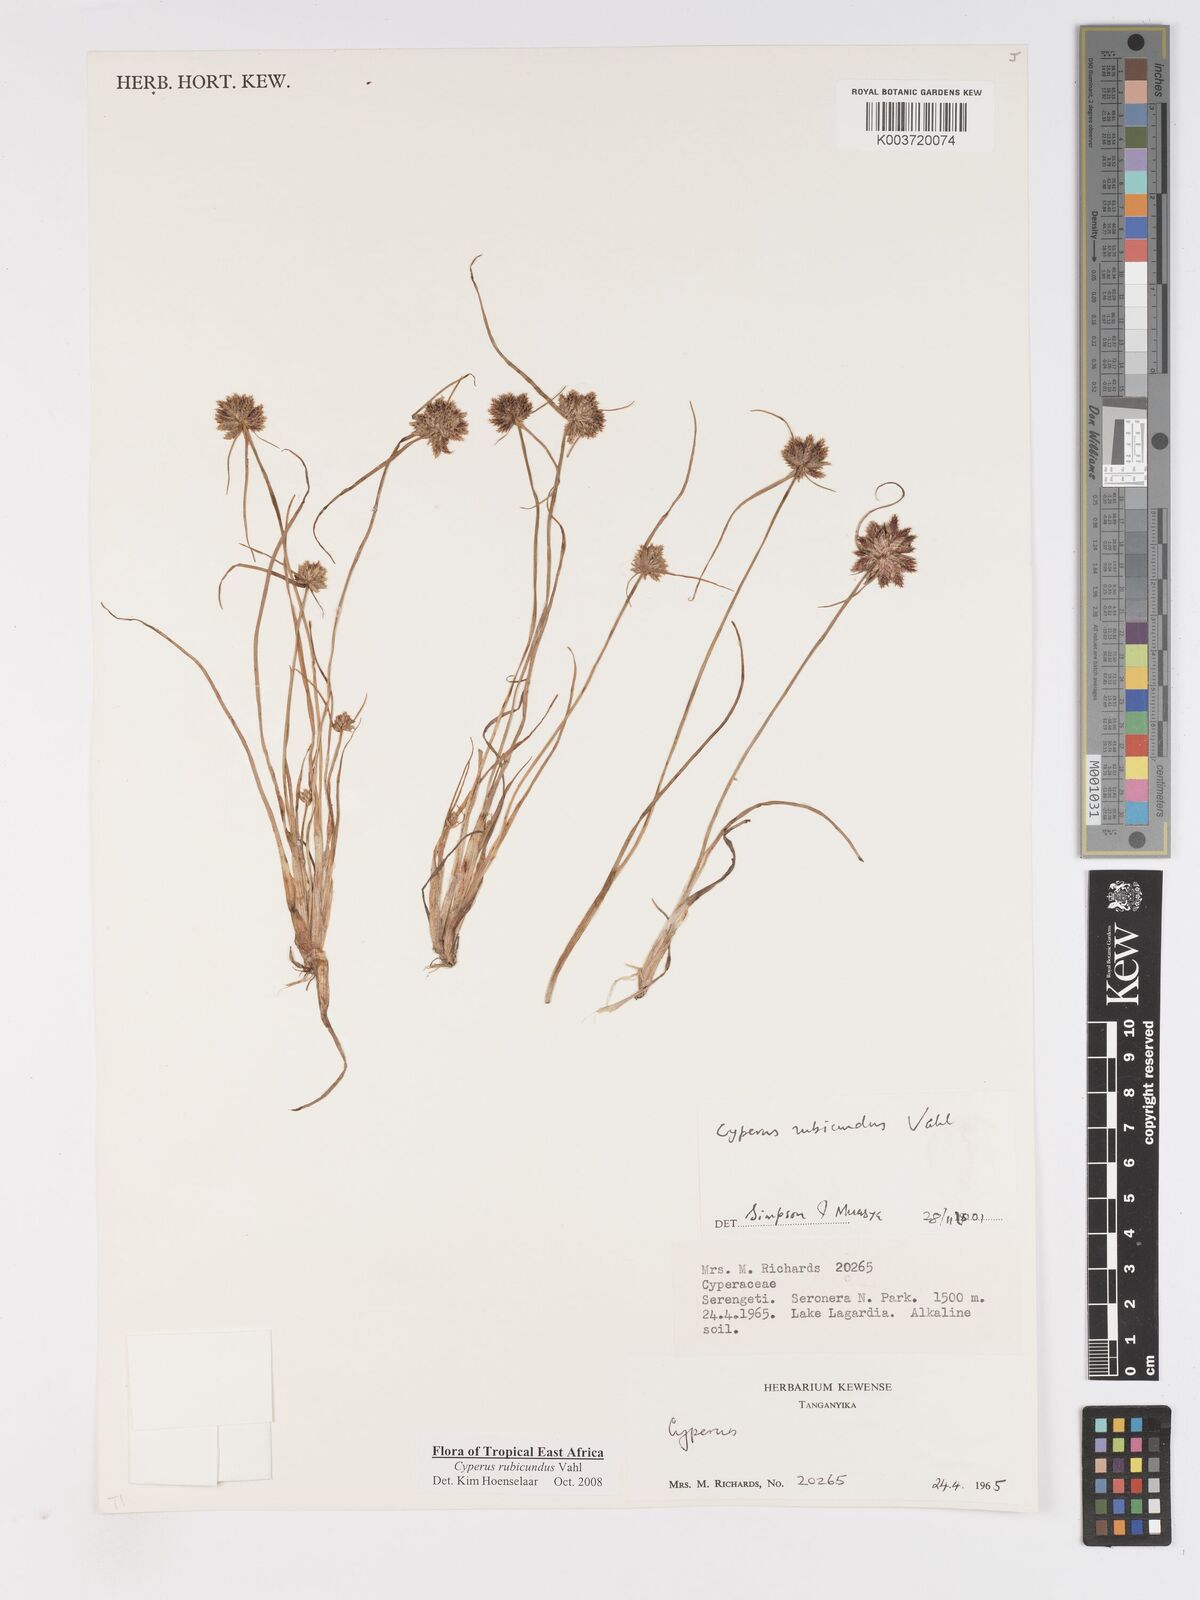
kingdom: Plantae
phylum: Tracheophyta
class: Liliopsida
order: Poales
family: Cyperaceae
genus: Cyperus
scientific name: Cyperus rubicundus
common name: Coco-grass
